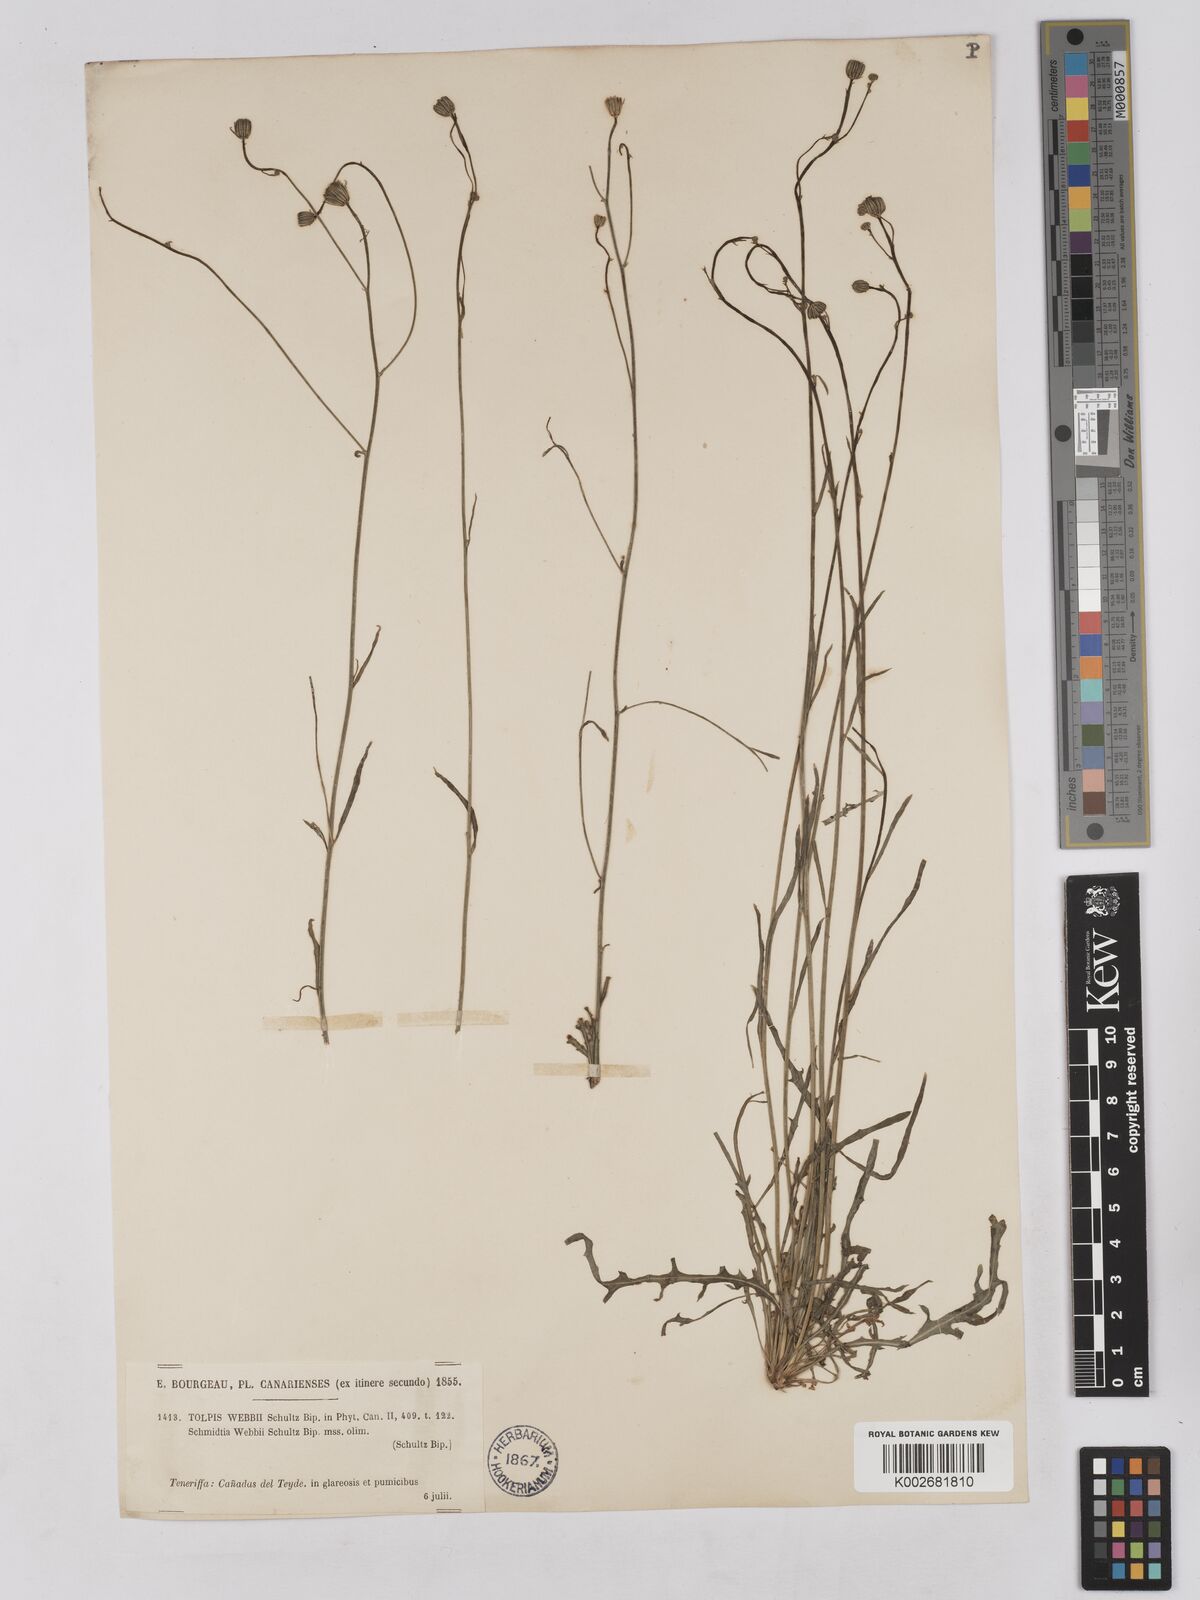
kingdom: Plantae
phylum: Tracheophyta
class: Magnoliopsida
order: Asterales
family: Asteraceae
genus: Tolpis
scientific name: Tolpis webbii
